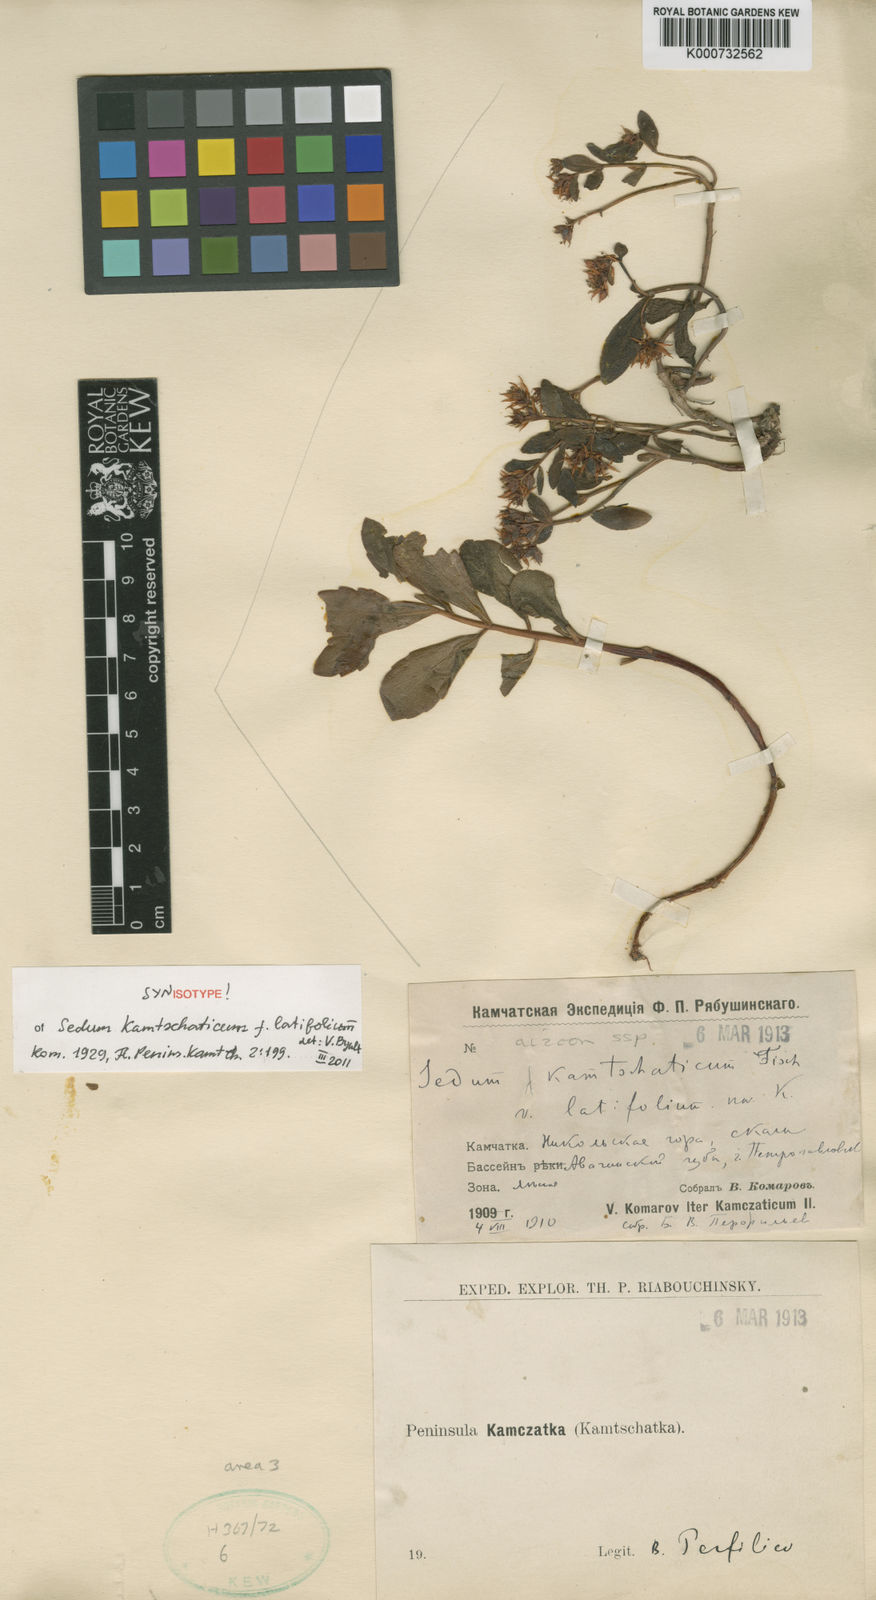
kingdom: Plantae
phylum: Tracheophyta
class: Magnoliopsida
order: Saxifragales
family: Crassulaceae
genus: Phedimus
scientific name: Phedimus kamtschaticus
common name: Orange stonecrop
